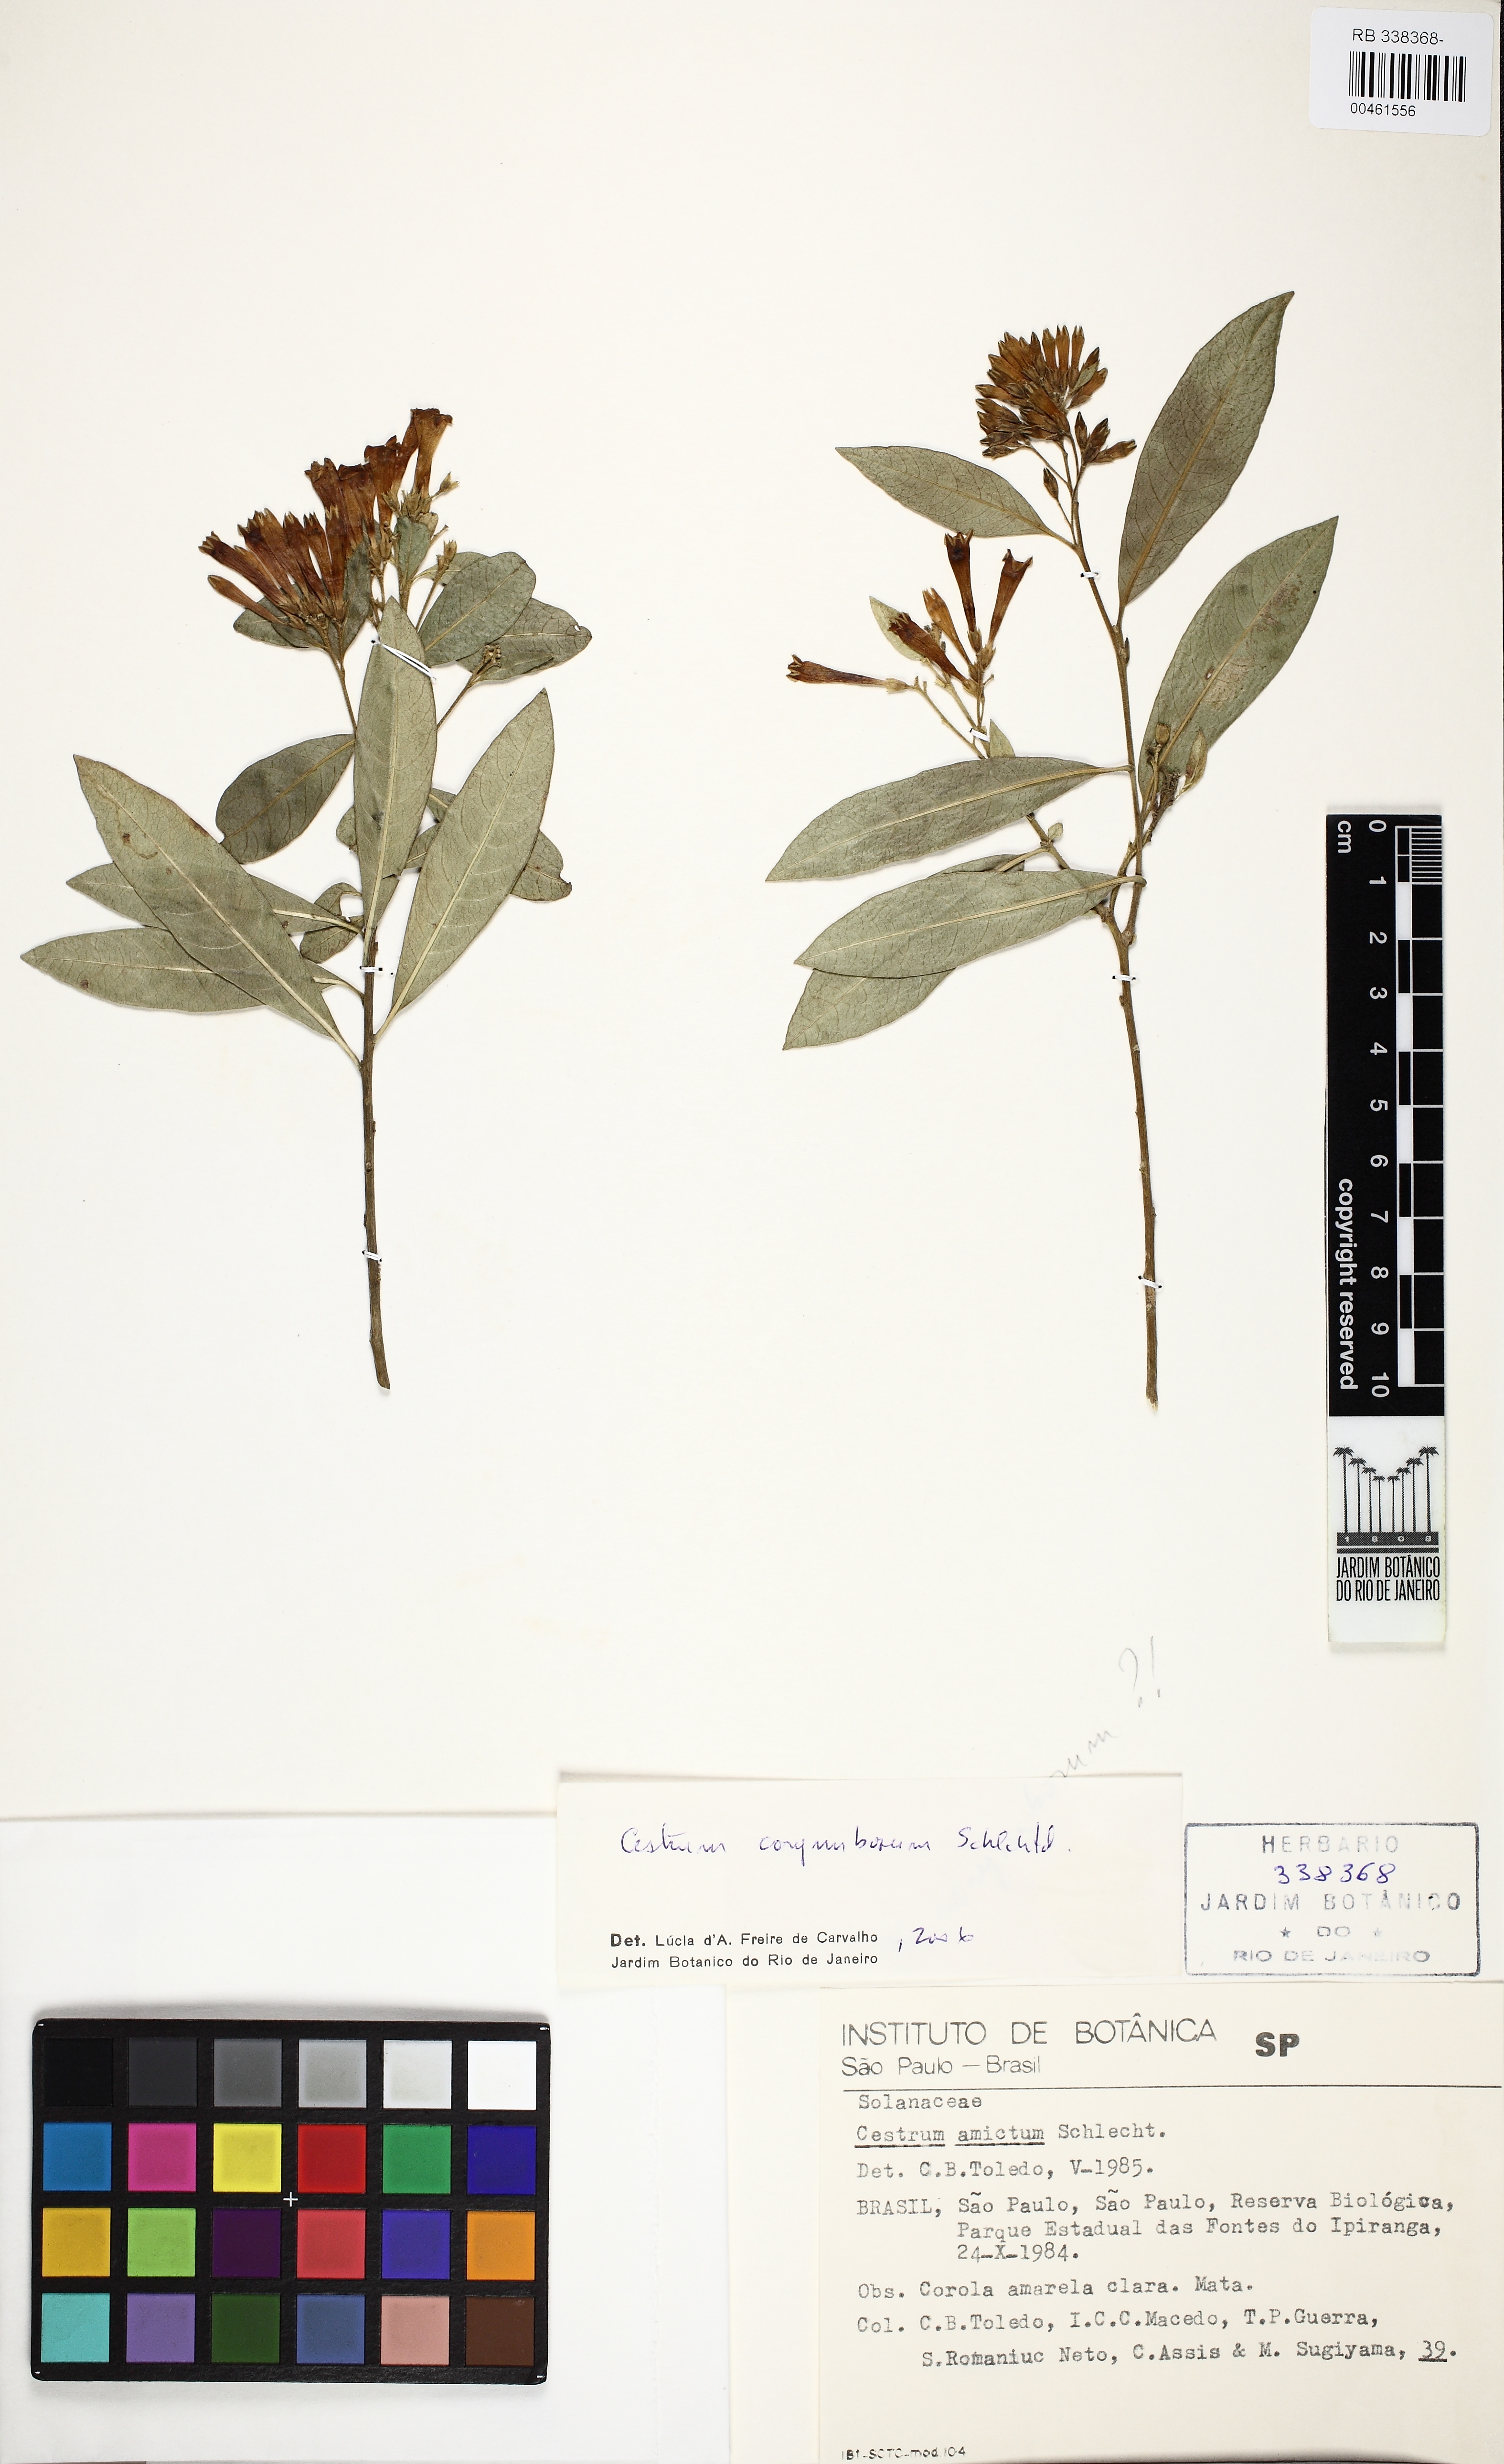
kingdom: Plantae
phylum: Tracheophyta
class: Magnoliopsida
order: Solanales
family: Solanaceae
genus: Cestrum
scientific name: Cestrum corymbosum
